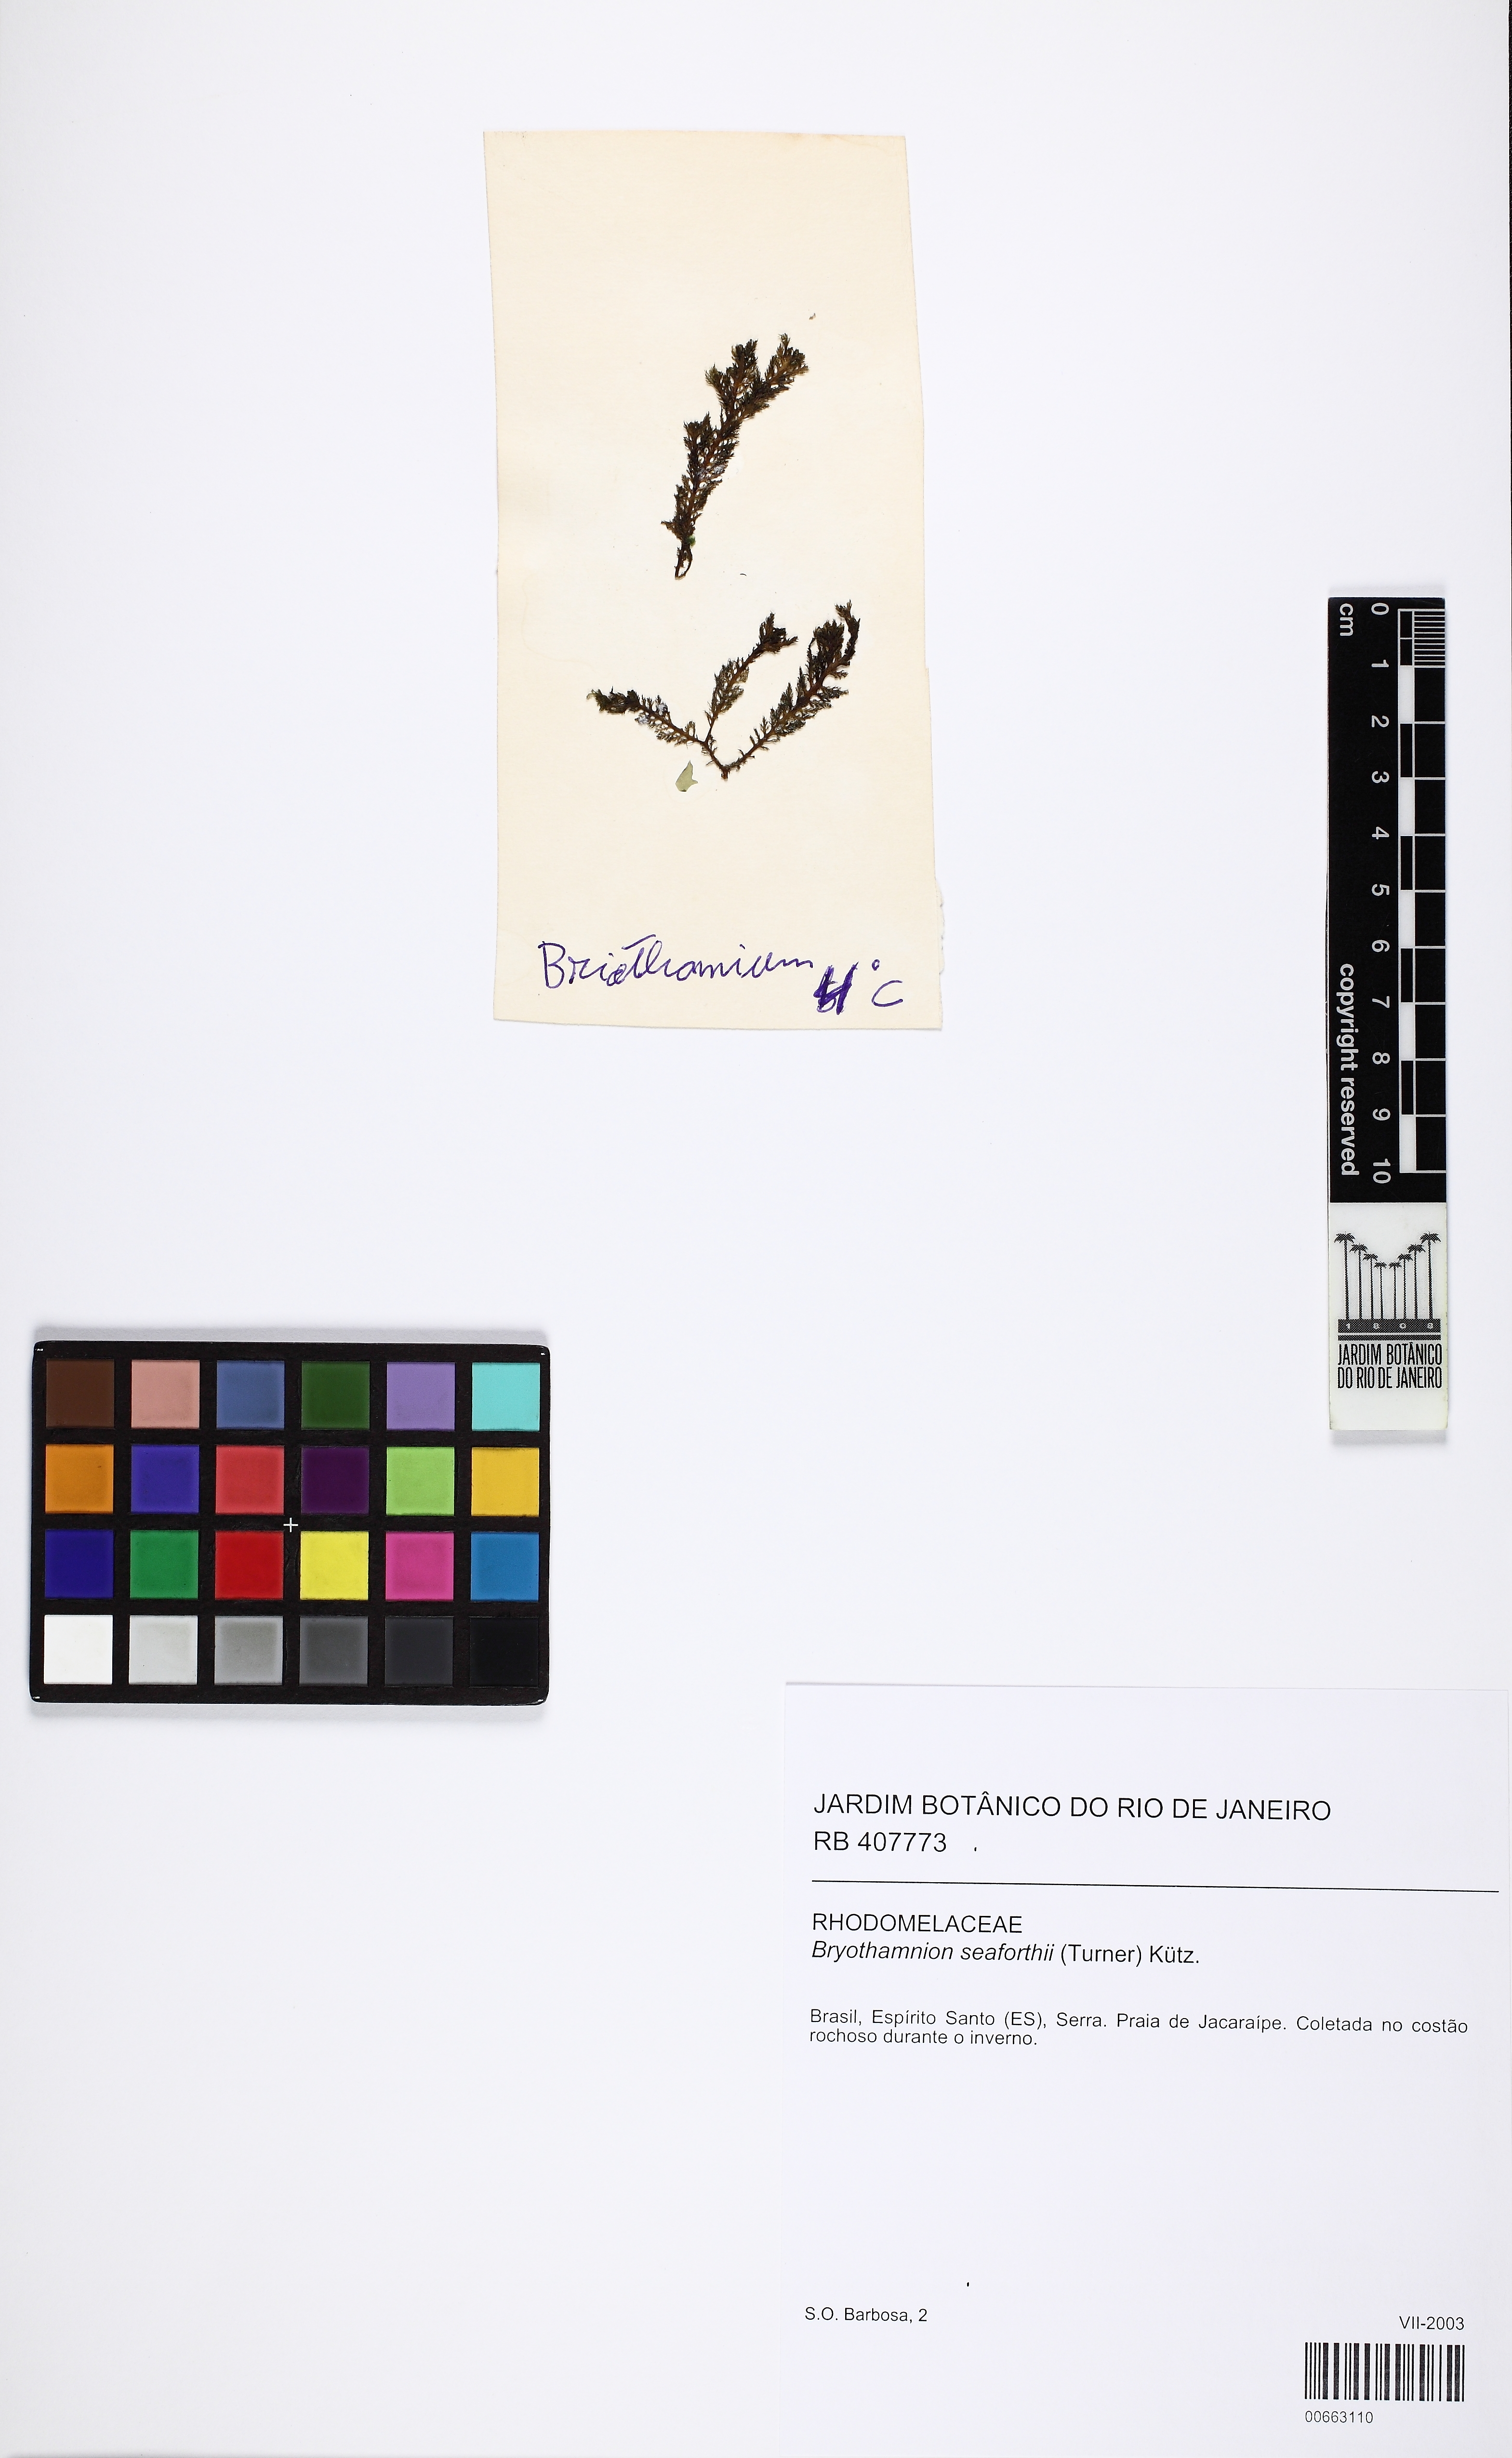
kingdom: Plantae
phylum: Rhodophyta
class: Florideophyceae
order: Ceramiales
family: Rhodomelaceae
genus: Alsidium
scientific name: Alsidium seaforthii
